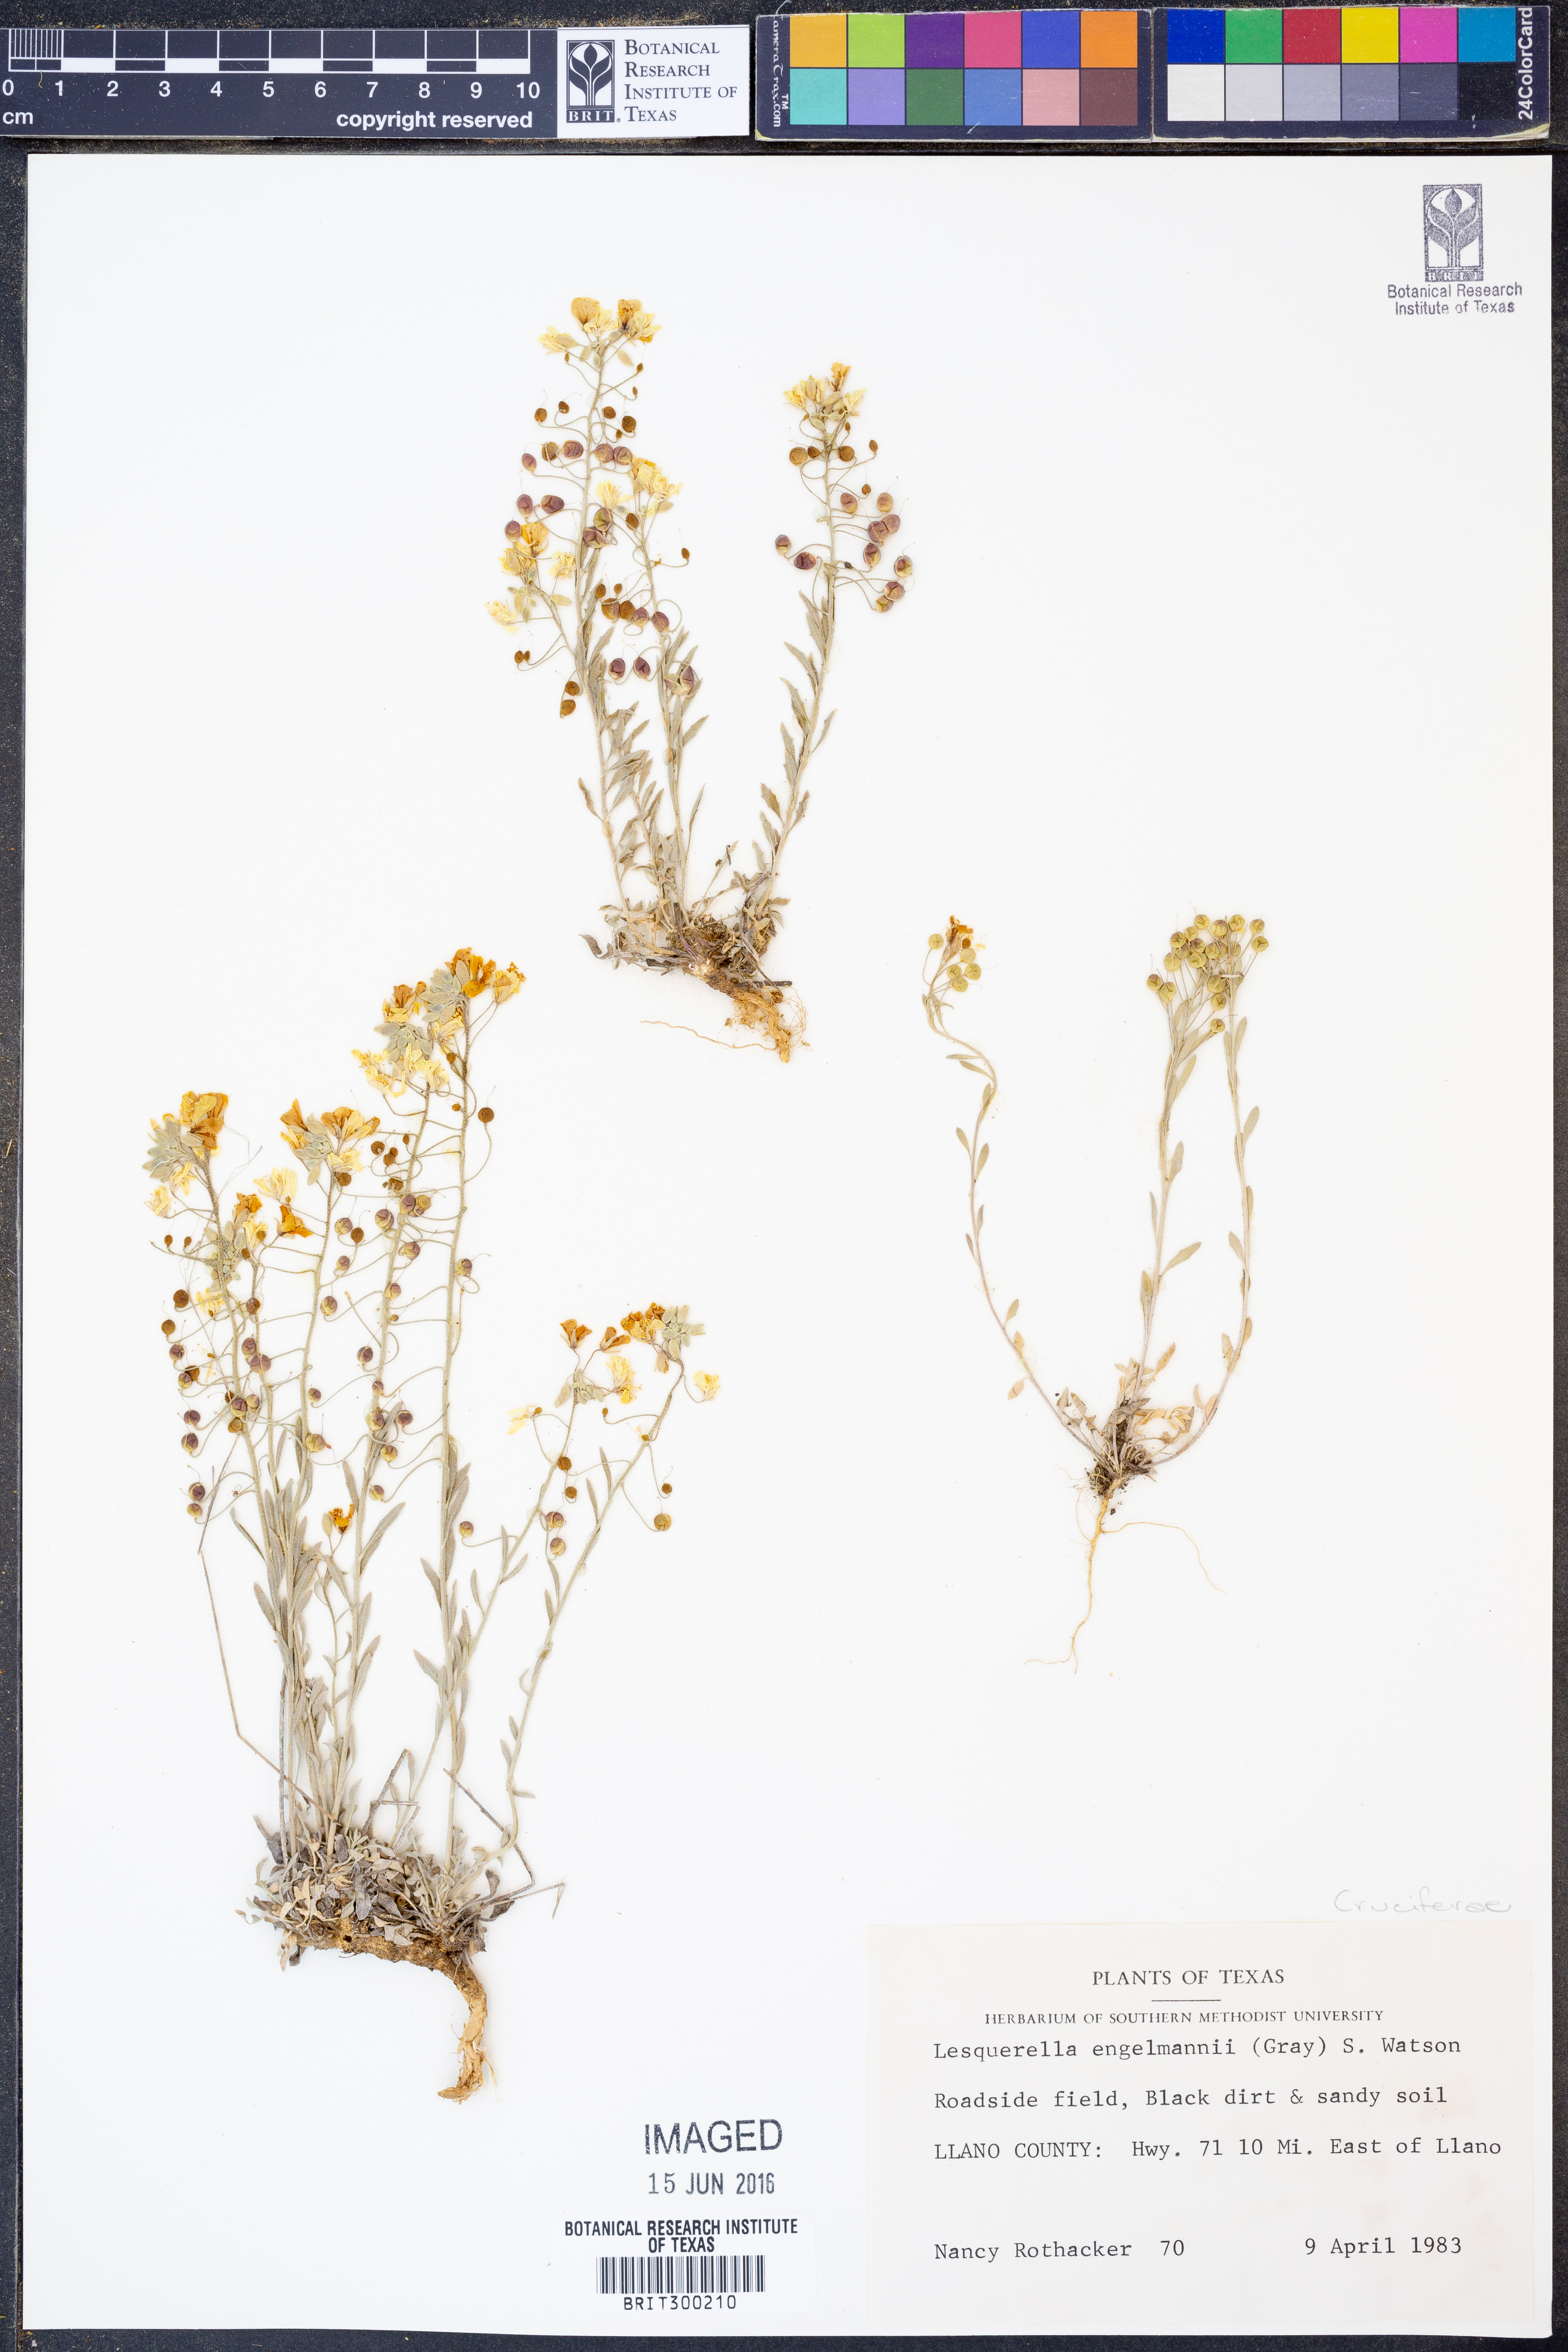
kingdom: Plantae
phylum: Tracheophyta
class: Magnoliopsida
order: Brassicales
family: Brassicaceae
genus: Physaria
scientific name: Physaria engelmannii
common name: Engelmann's bladderpod
